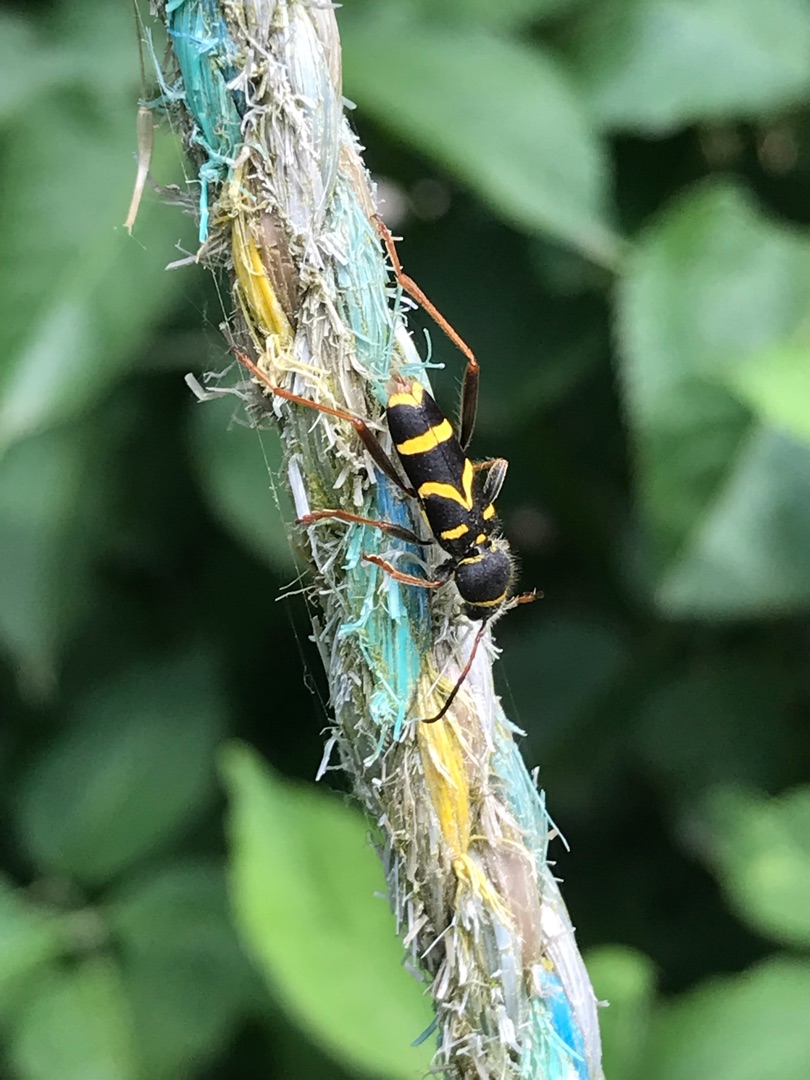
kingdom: Animalia
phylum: Arthropoda
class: Insecta
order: Coleoptera
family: Cerambycidae
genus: Clytus
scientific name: Clytus arietis
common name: Lille hvepsebuk
